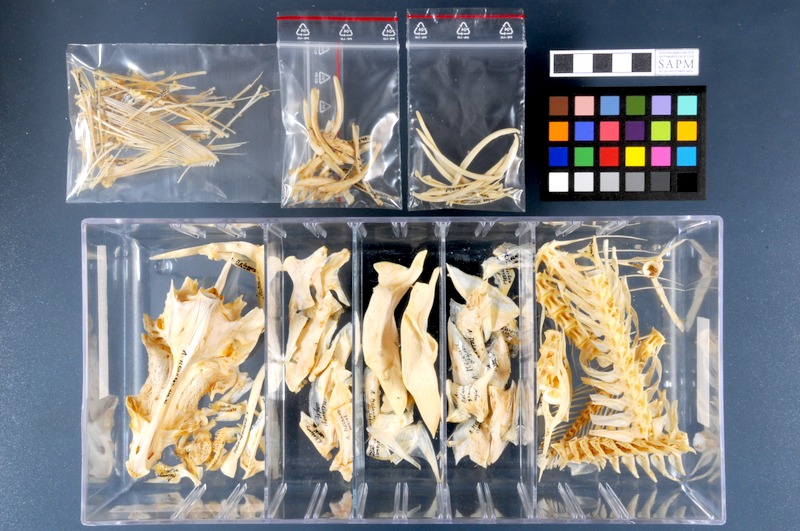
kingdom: Animalia
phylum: Chordata
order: Gadiformes
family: Gadidae
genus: Melanogrammus
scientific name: Melanogrammus aeglefinus
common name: Haddock
